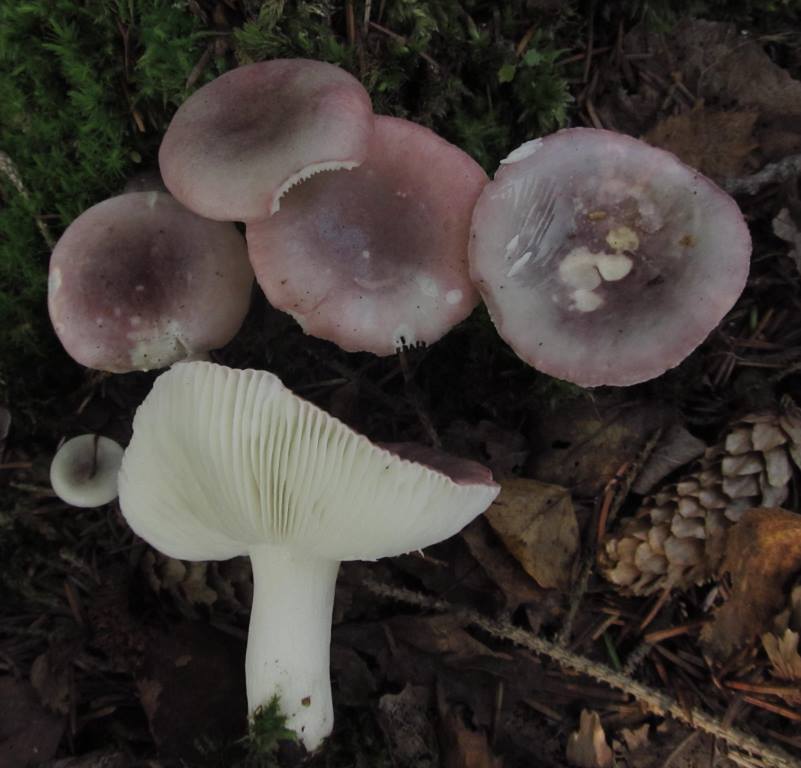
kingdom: Fungi
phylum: Basidiomycota
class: Agaricomycetes
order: Russulales
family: Russulaceae
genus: Russula
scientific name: Russula pelargonia
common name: pelargonie-skørhat
